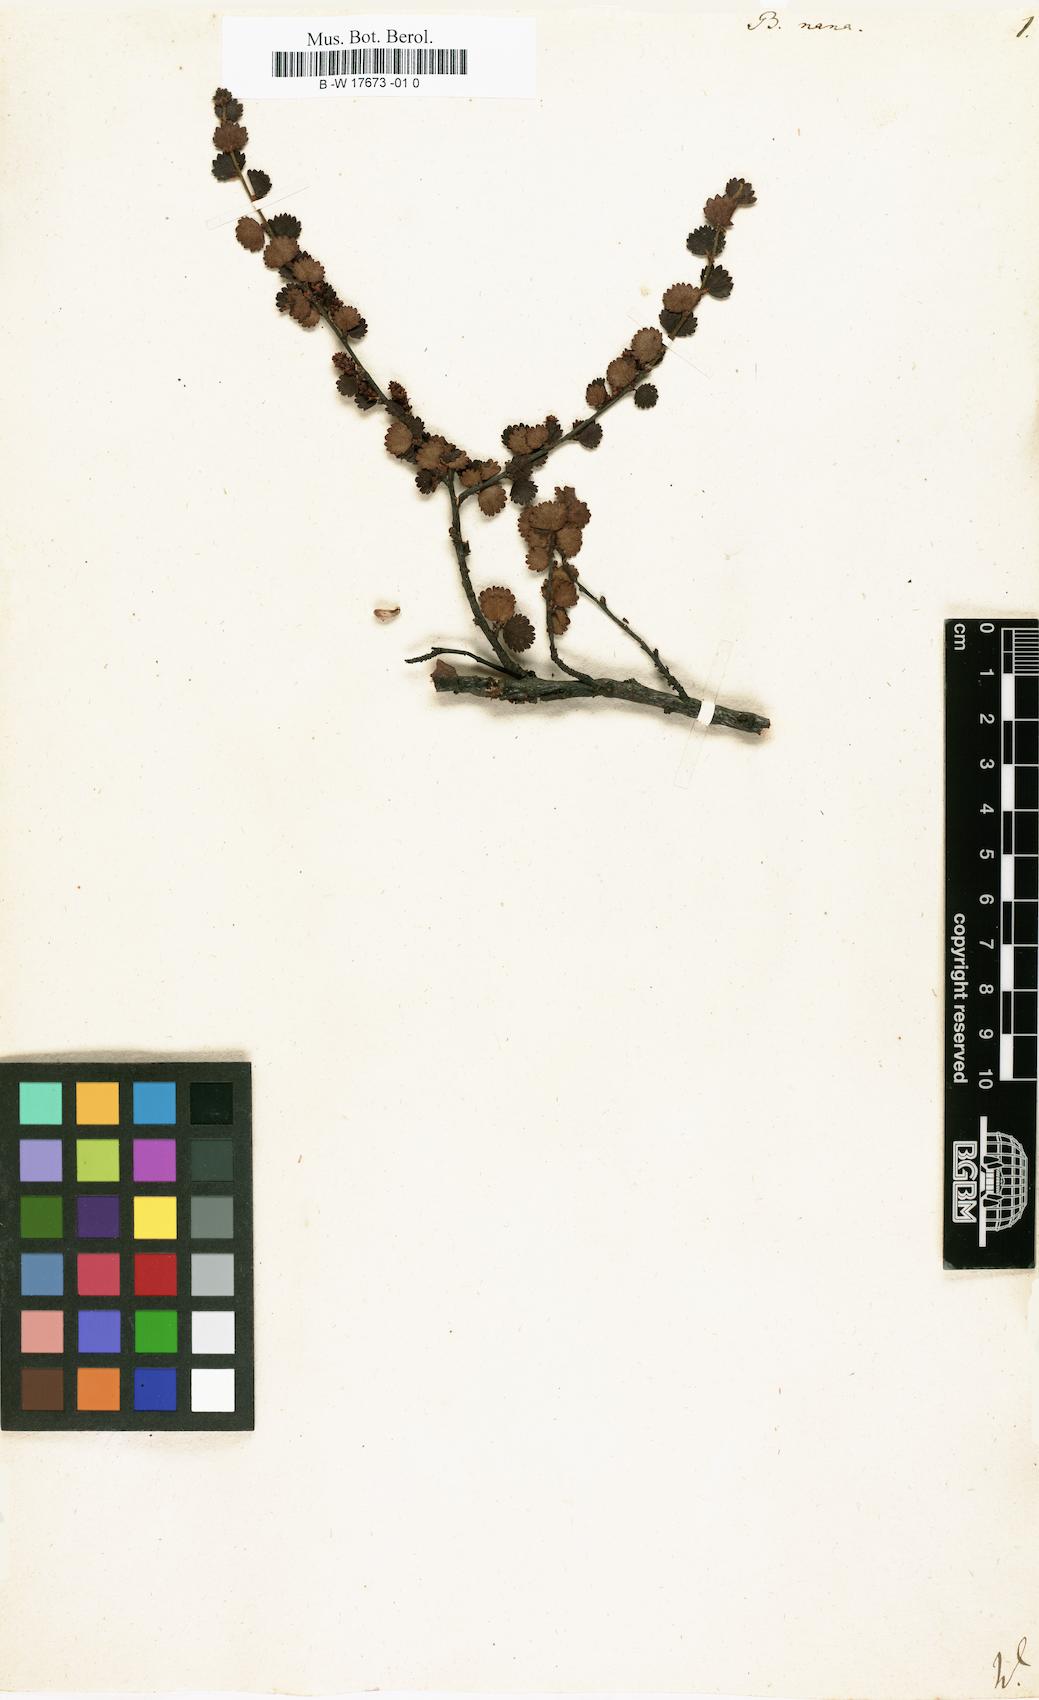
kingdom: Plantae
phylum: Tracheophyta
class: Magnoliopsida
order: Fagales
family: Betulaceae
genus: Betula
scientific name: Betula nana
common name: Arctic dwarf birch
